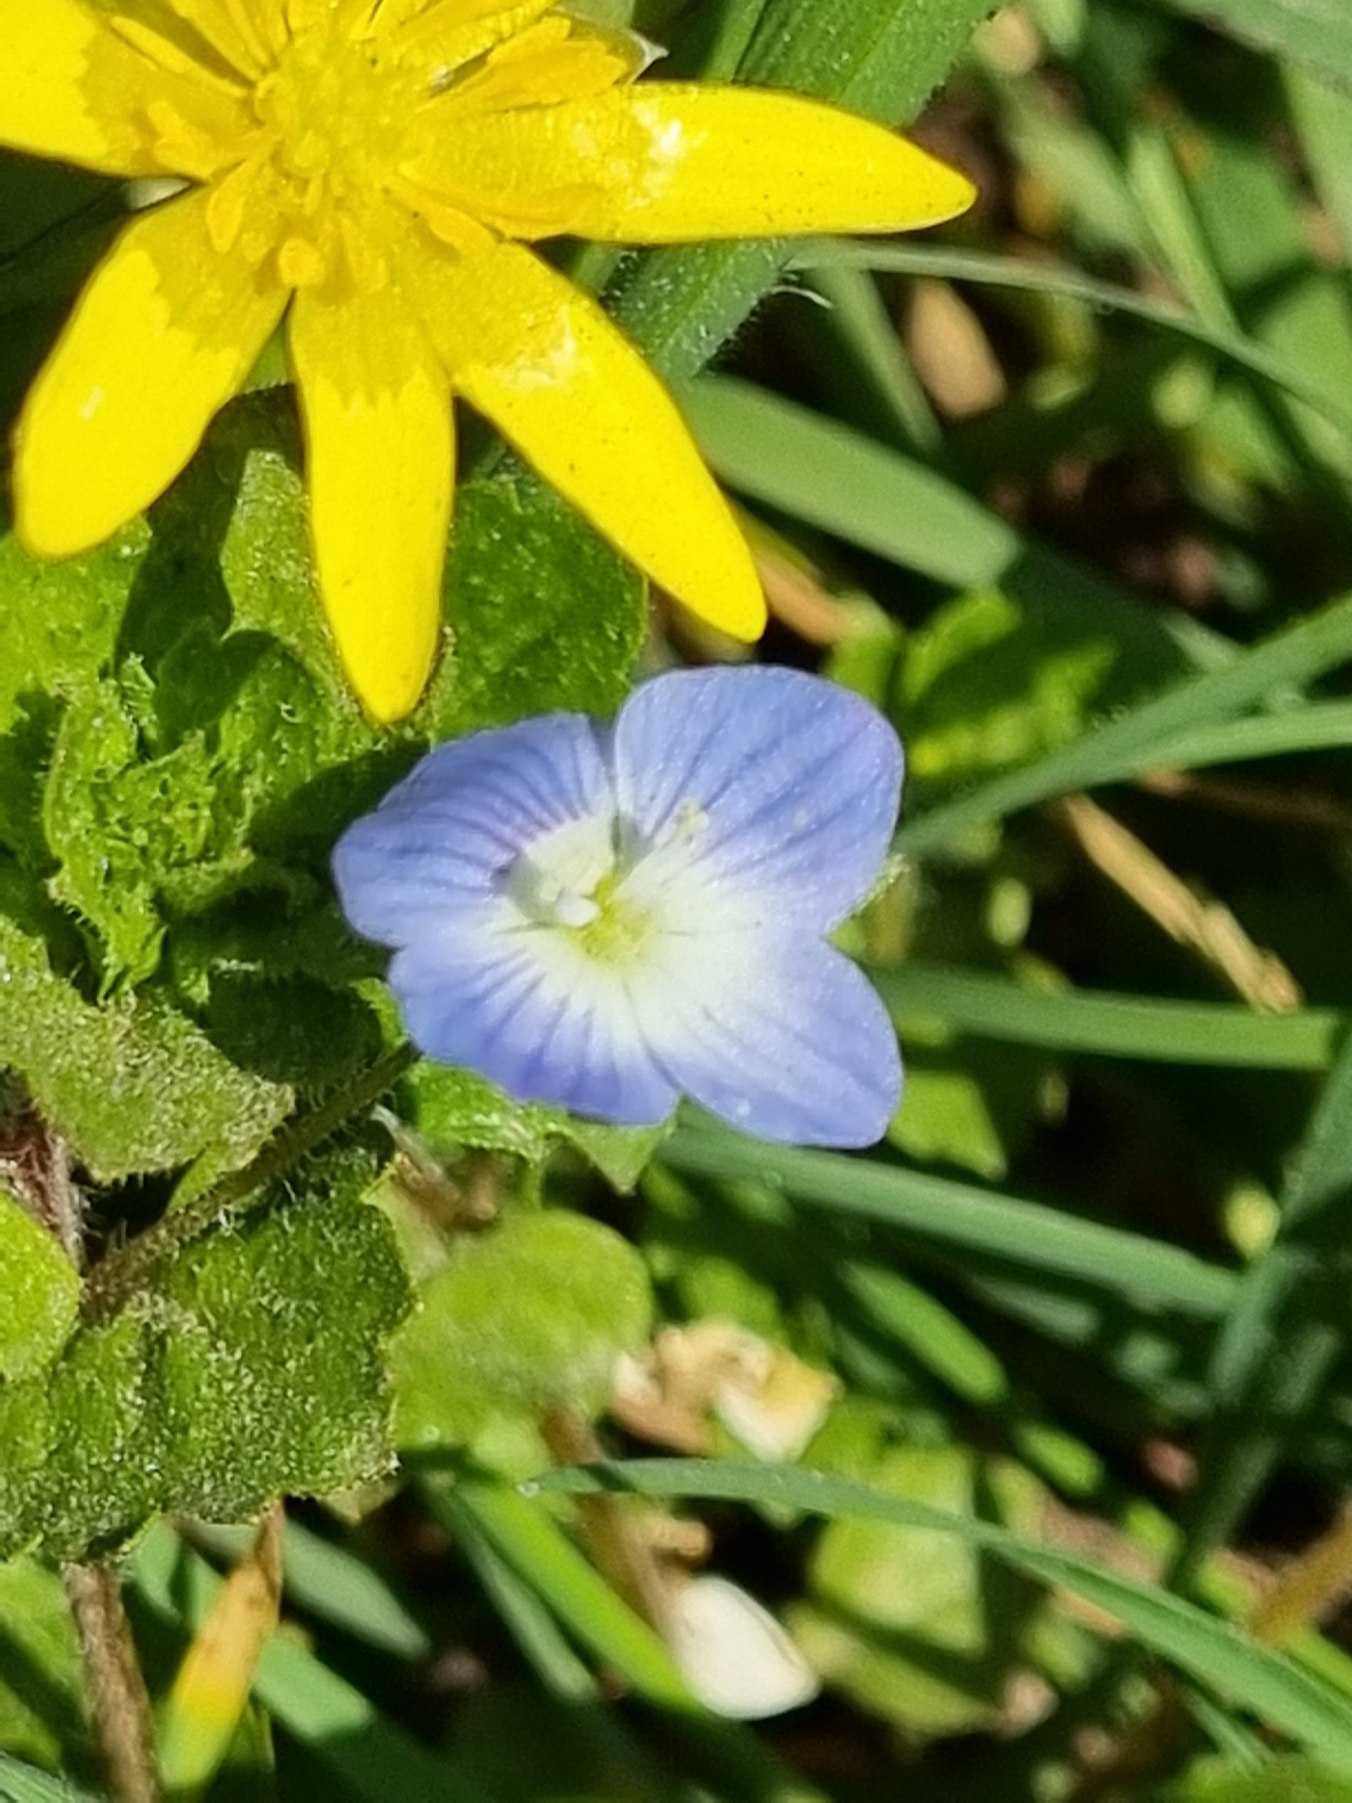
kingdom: Plantae
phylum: Tracheophyta
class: Magnoliopsida
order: Lamiales
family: Plantaginaceae
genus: Veronica
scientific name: Veronica persica
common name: Storkronet ærenpris
